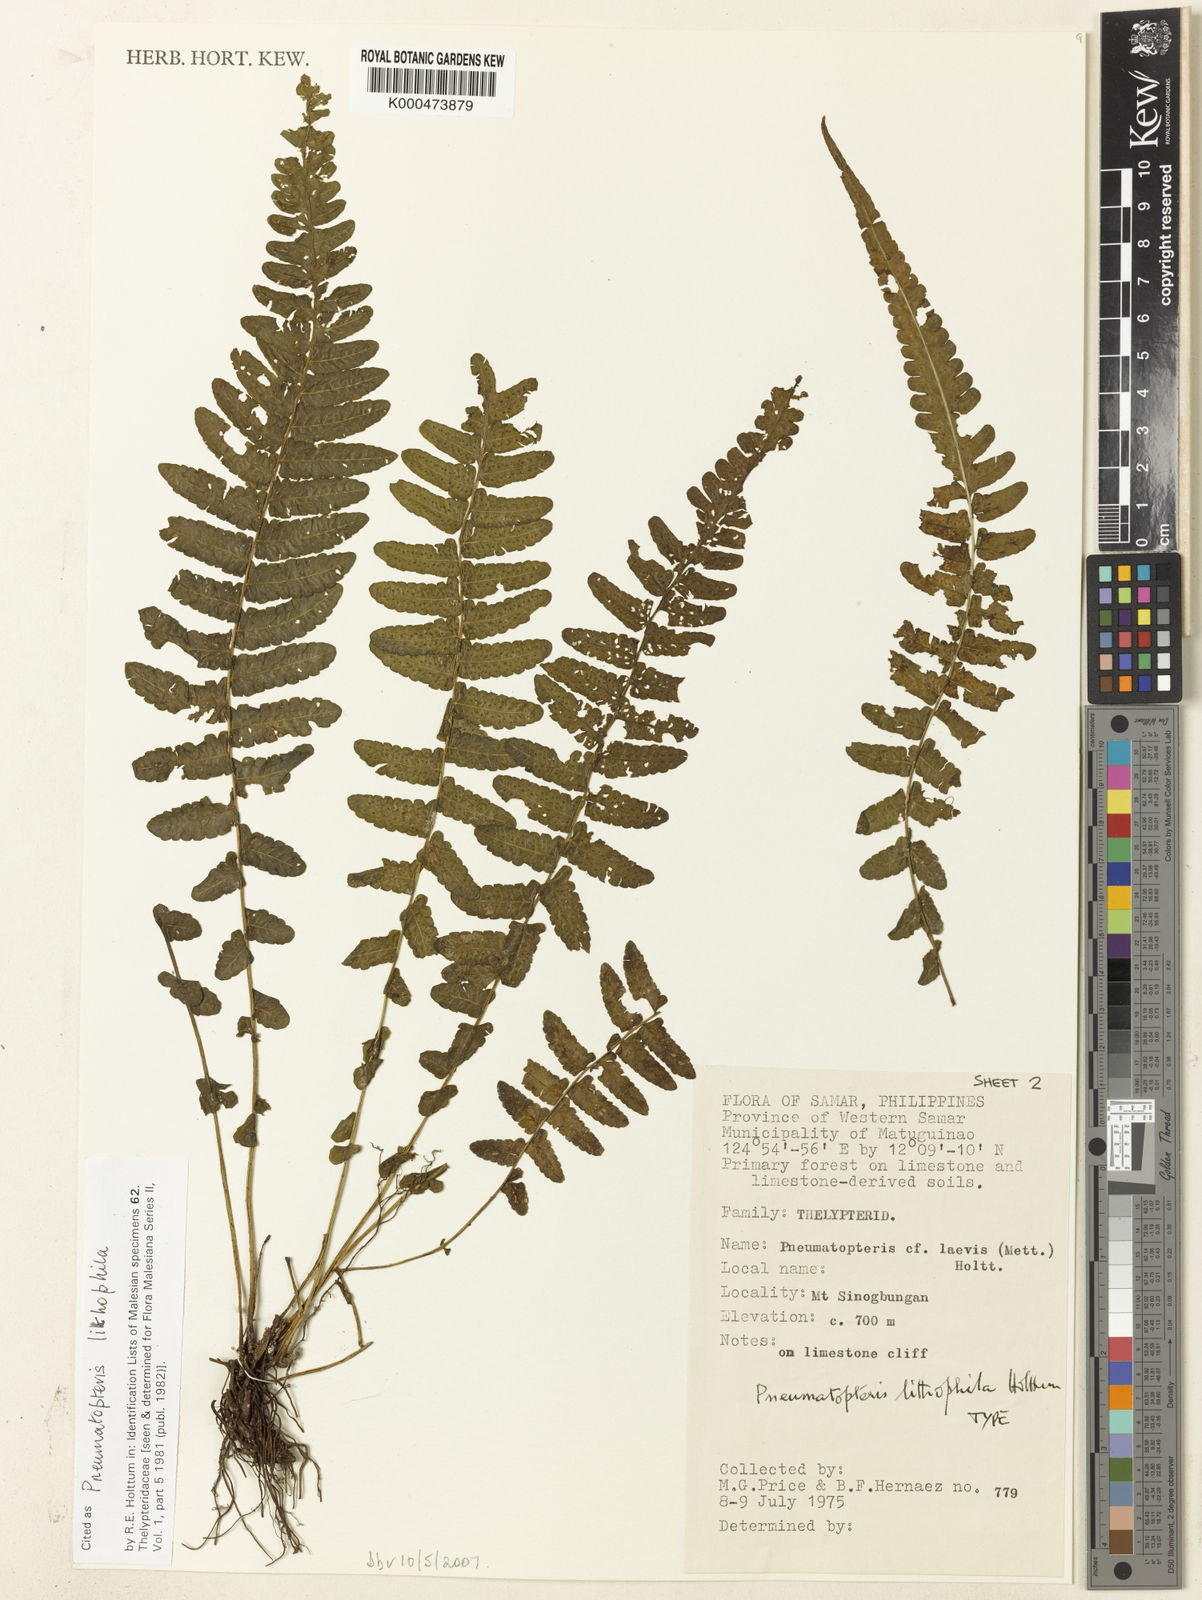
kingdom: Plantae
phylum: Tracheophyta
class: Polypodiopsida
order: Polypodiales
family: Thelypteridaceae
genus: Pneumatopteris
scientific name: Pneumatopteris lithophila
